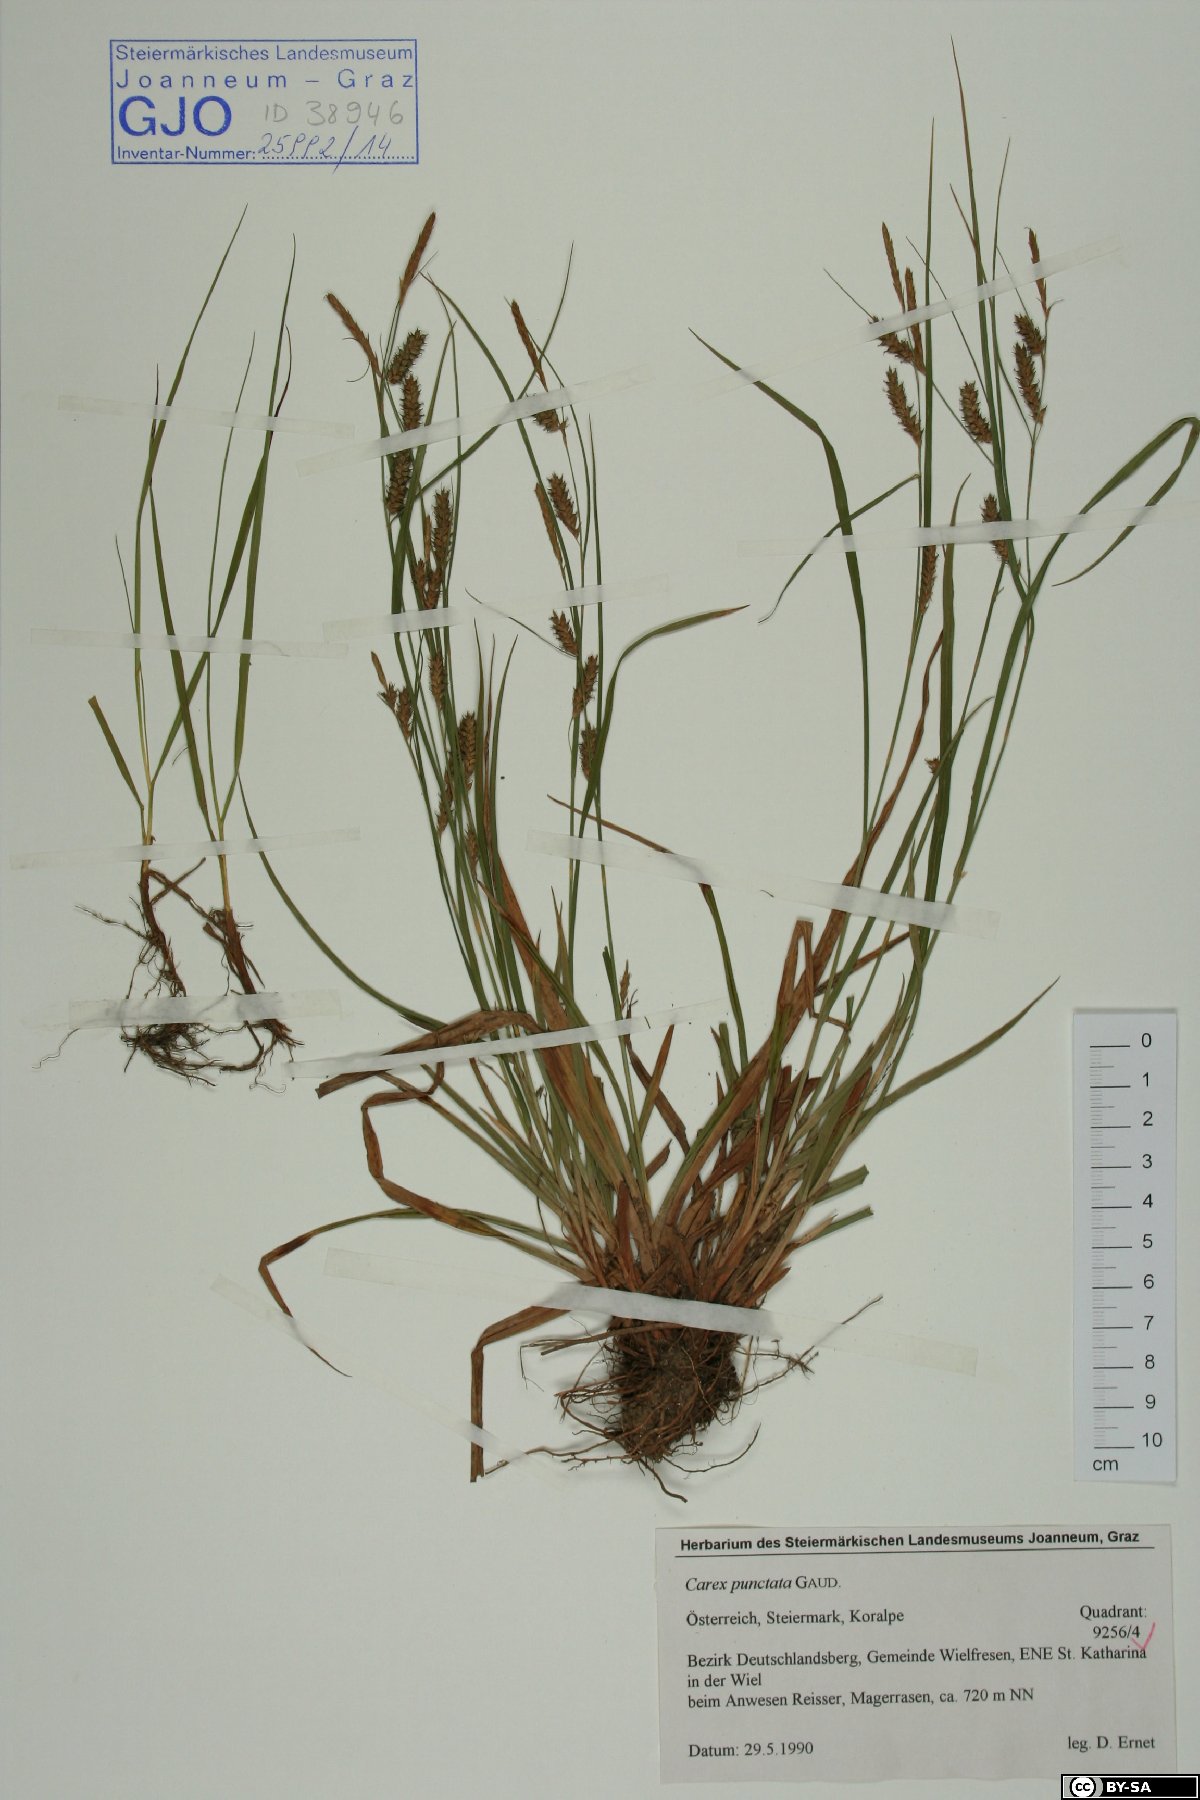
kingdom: Plantae
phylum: Tracheophyta
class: Liliopsida
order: Poales
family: Cyperaceae
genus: Carex
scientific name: Carex punctata
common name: Dotted sedge
